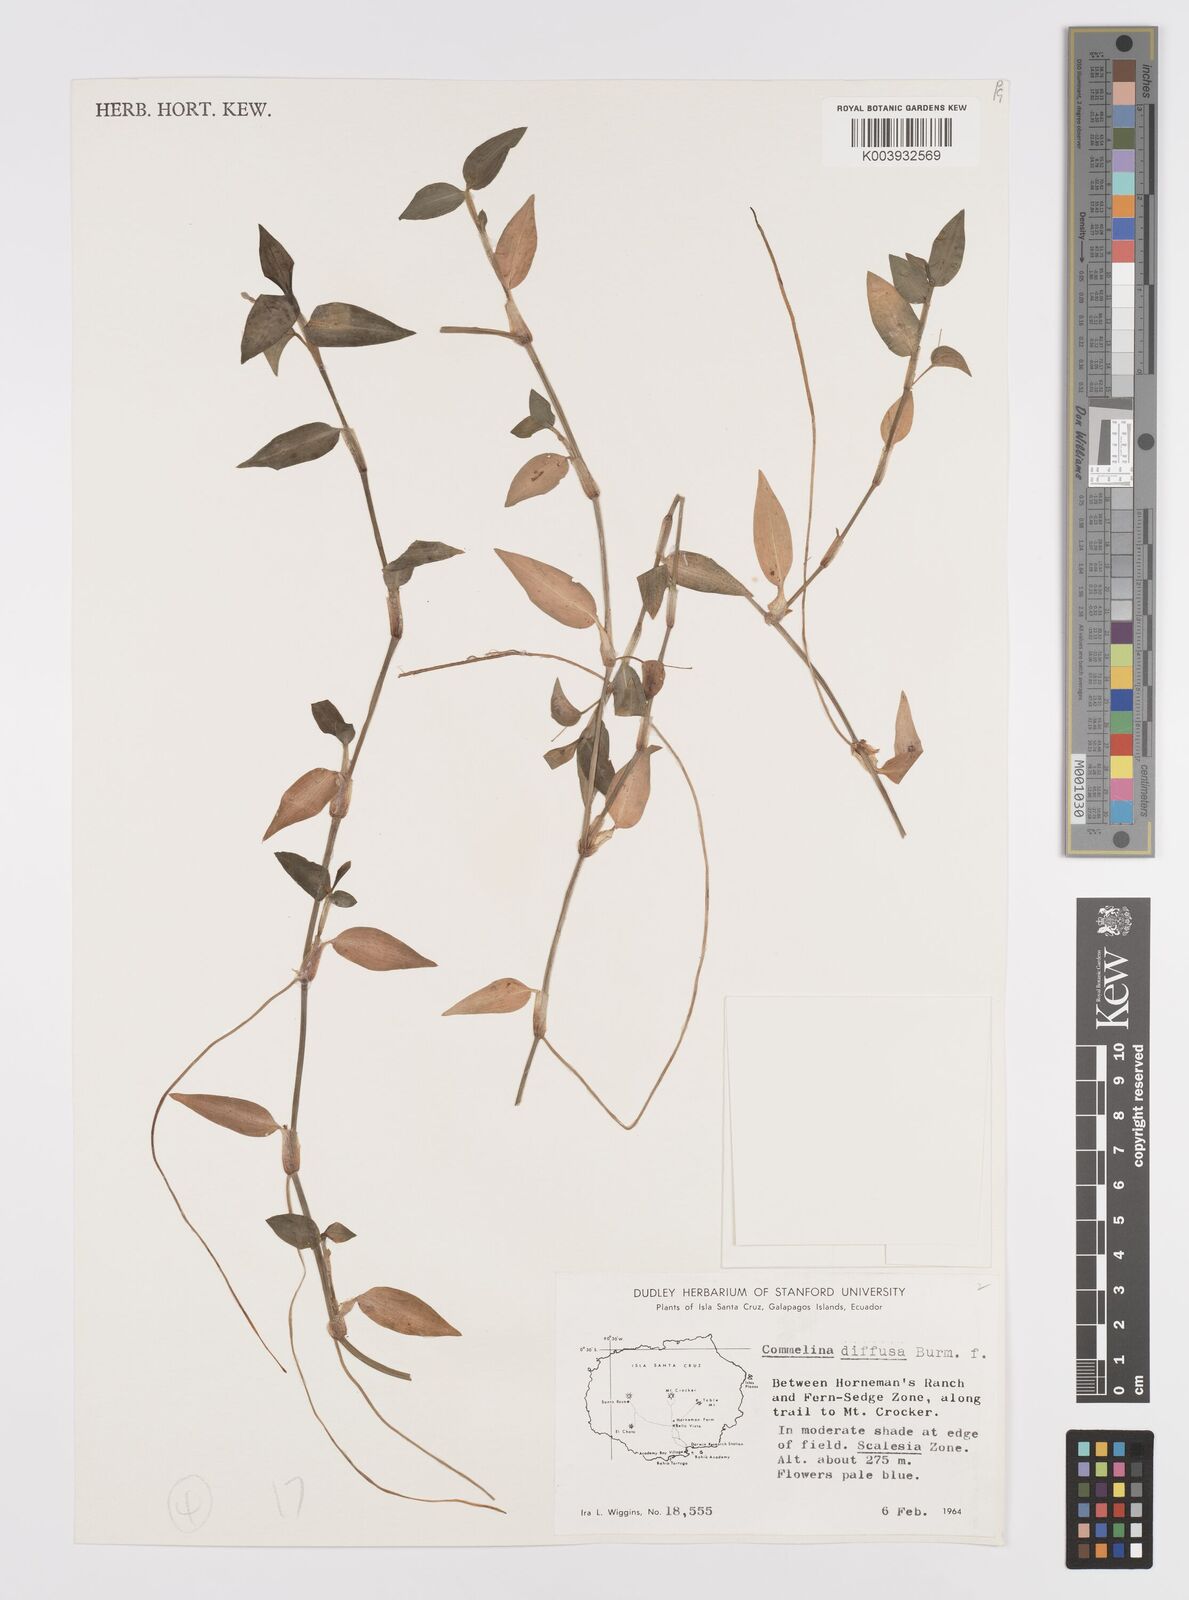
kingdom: Plantae
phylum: Tracheophyta
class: Liliopsida
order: Commelinales
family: Commelinaceae
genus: Commelina
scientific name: Commelina diffusa
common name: Climbing dayflower
